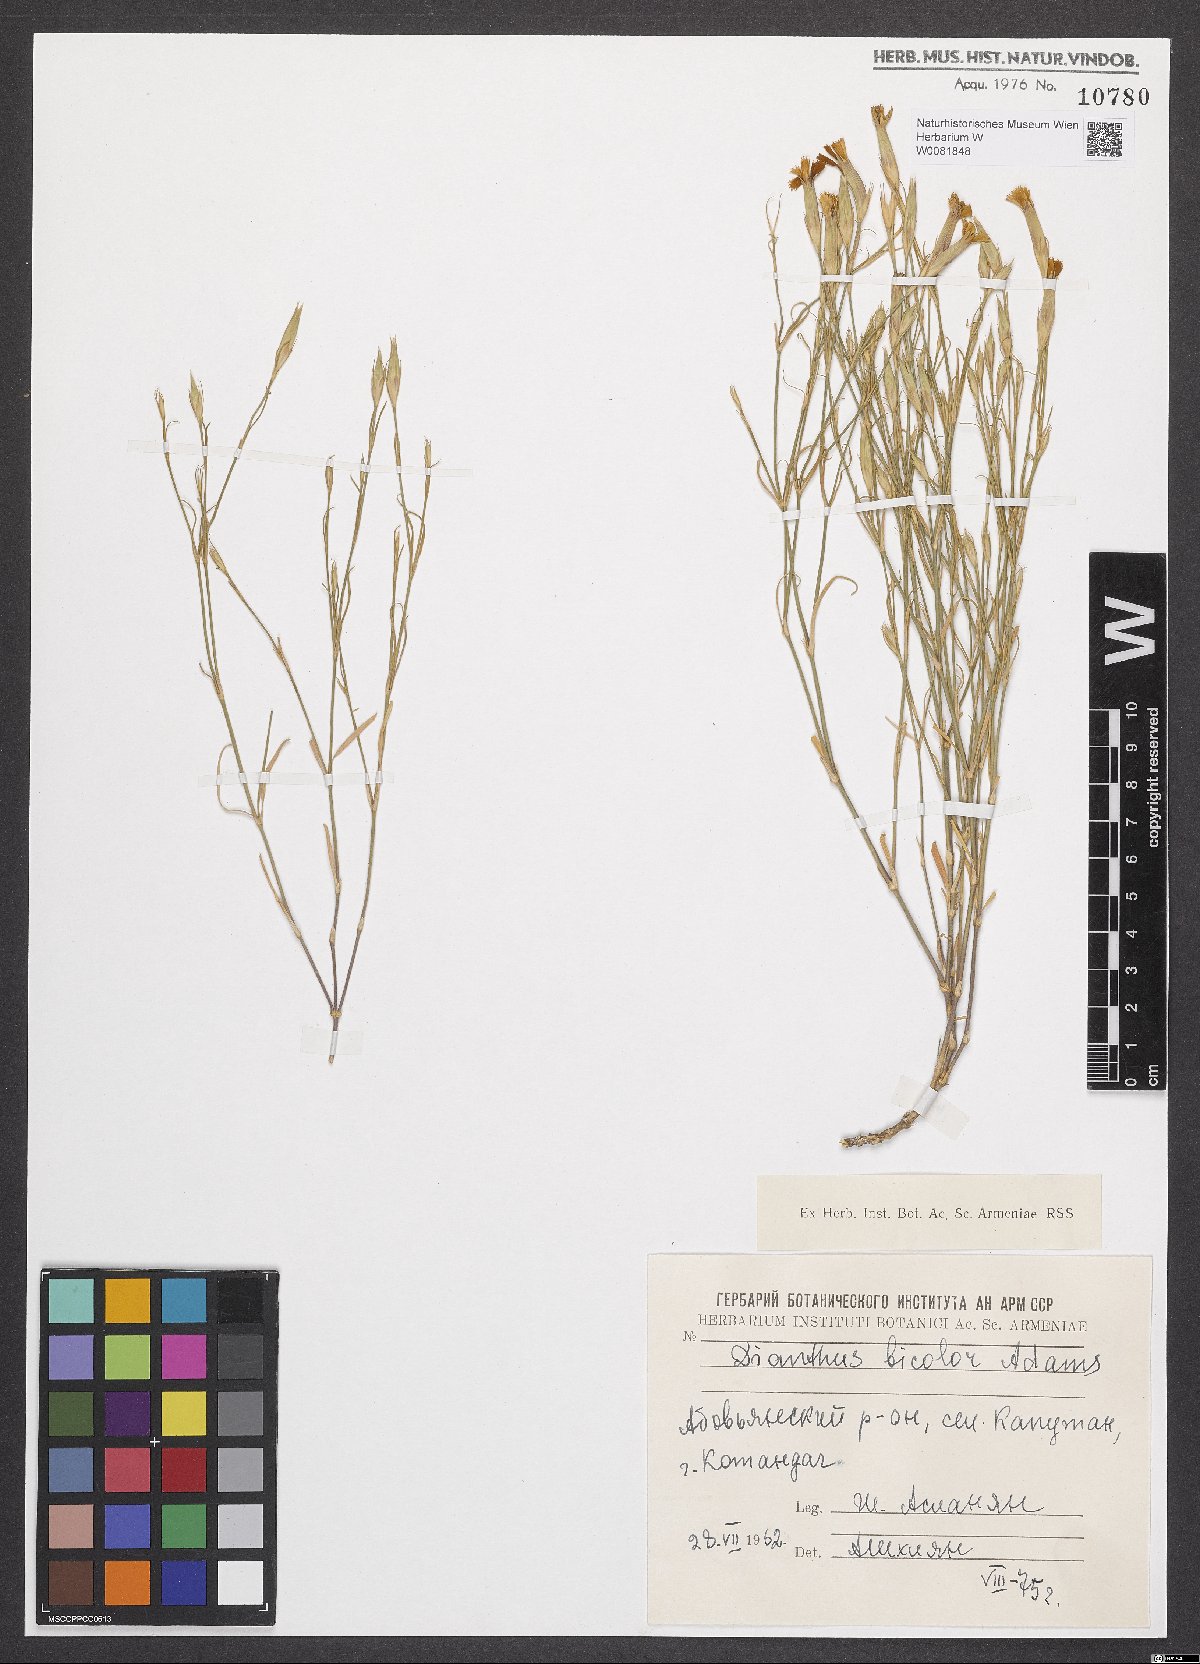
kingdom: Plantae
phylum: Tracheophyta
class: Magnoliopsida
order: Caryophyllales
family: Caryophyllaceae
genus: Dianthus
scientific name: Dianthus campestris
